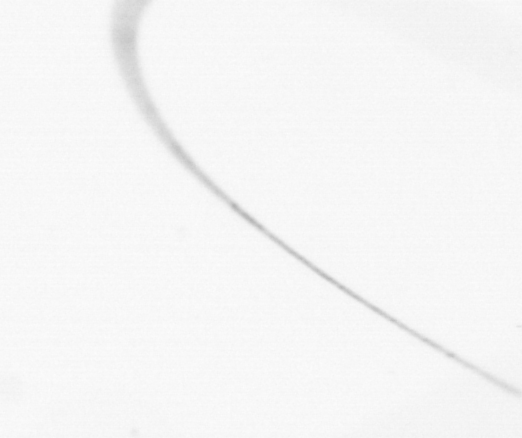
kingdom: Chromista
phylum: Ochrophyta
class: Bacillariophyceae
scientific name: Bacillariophyceae
